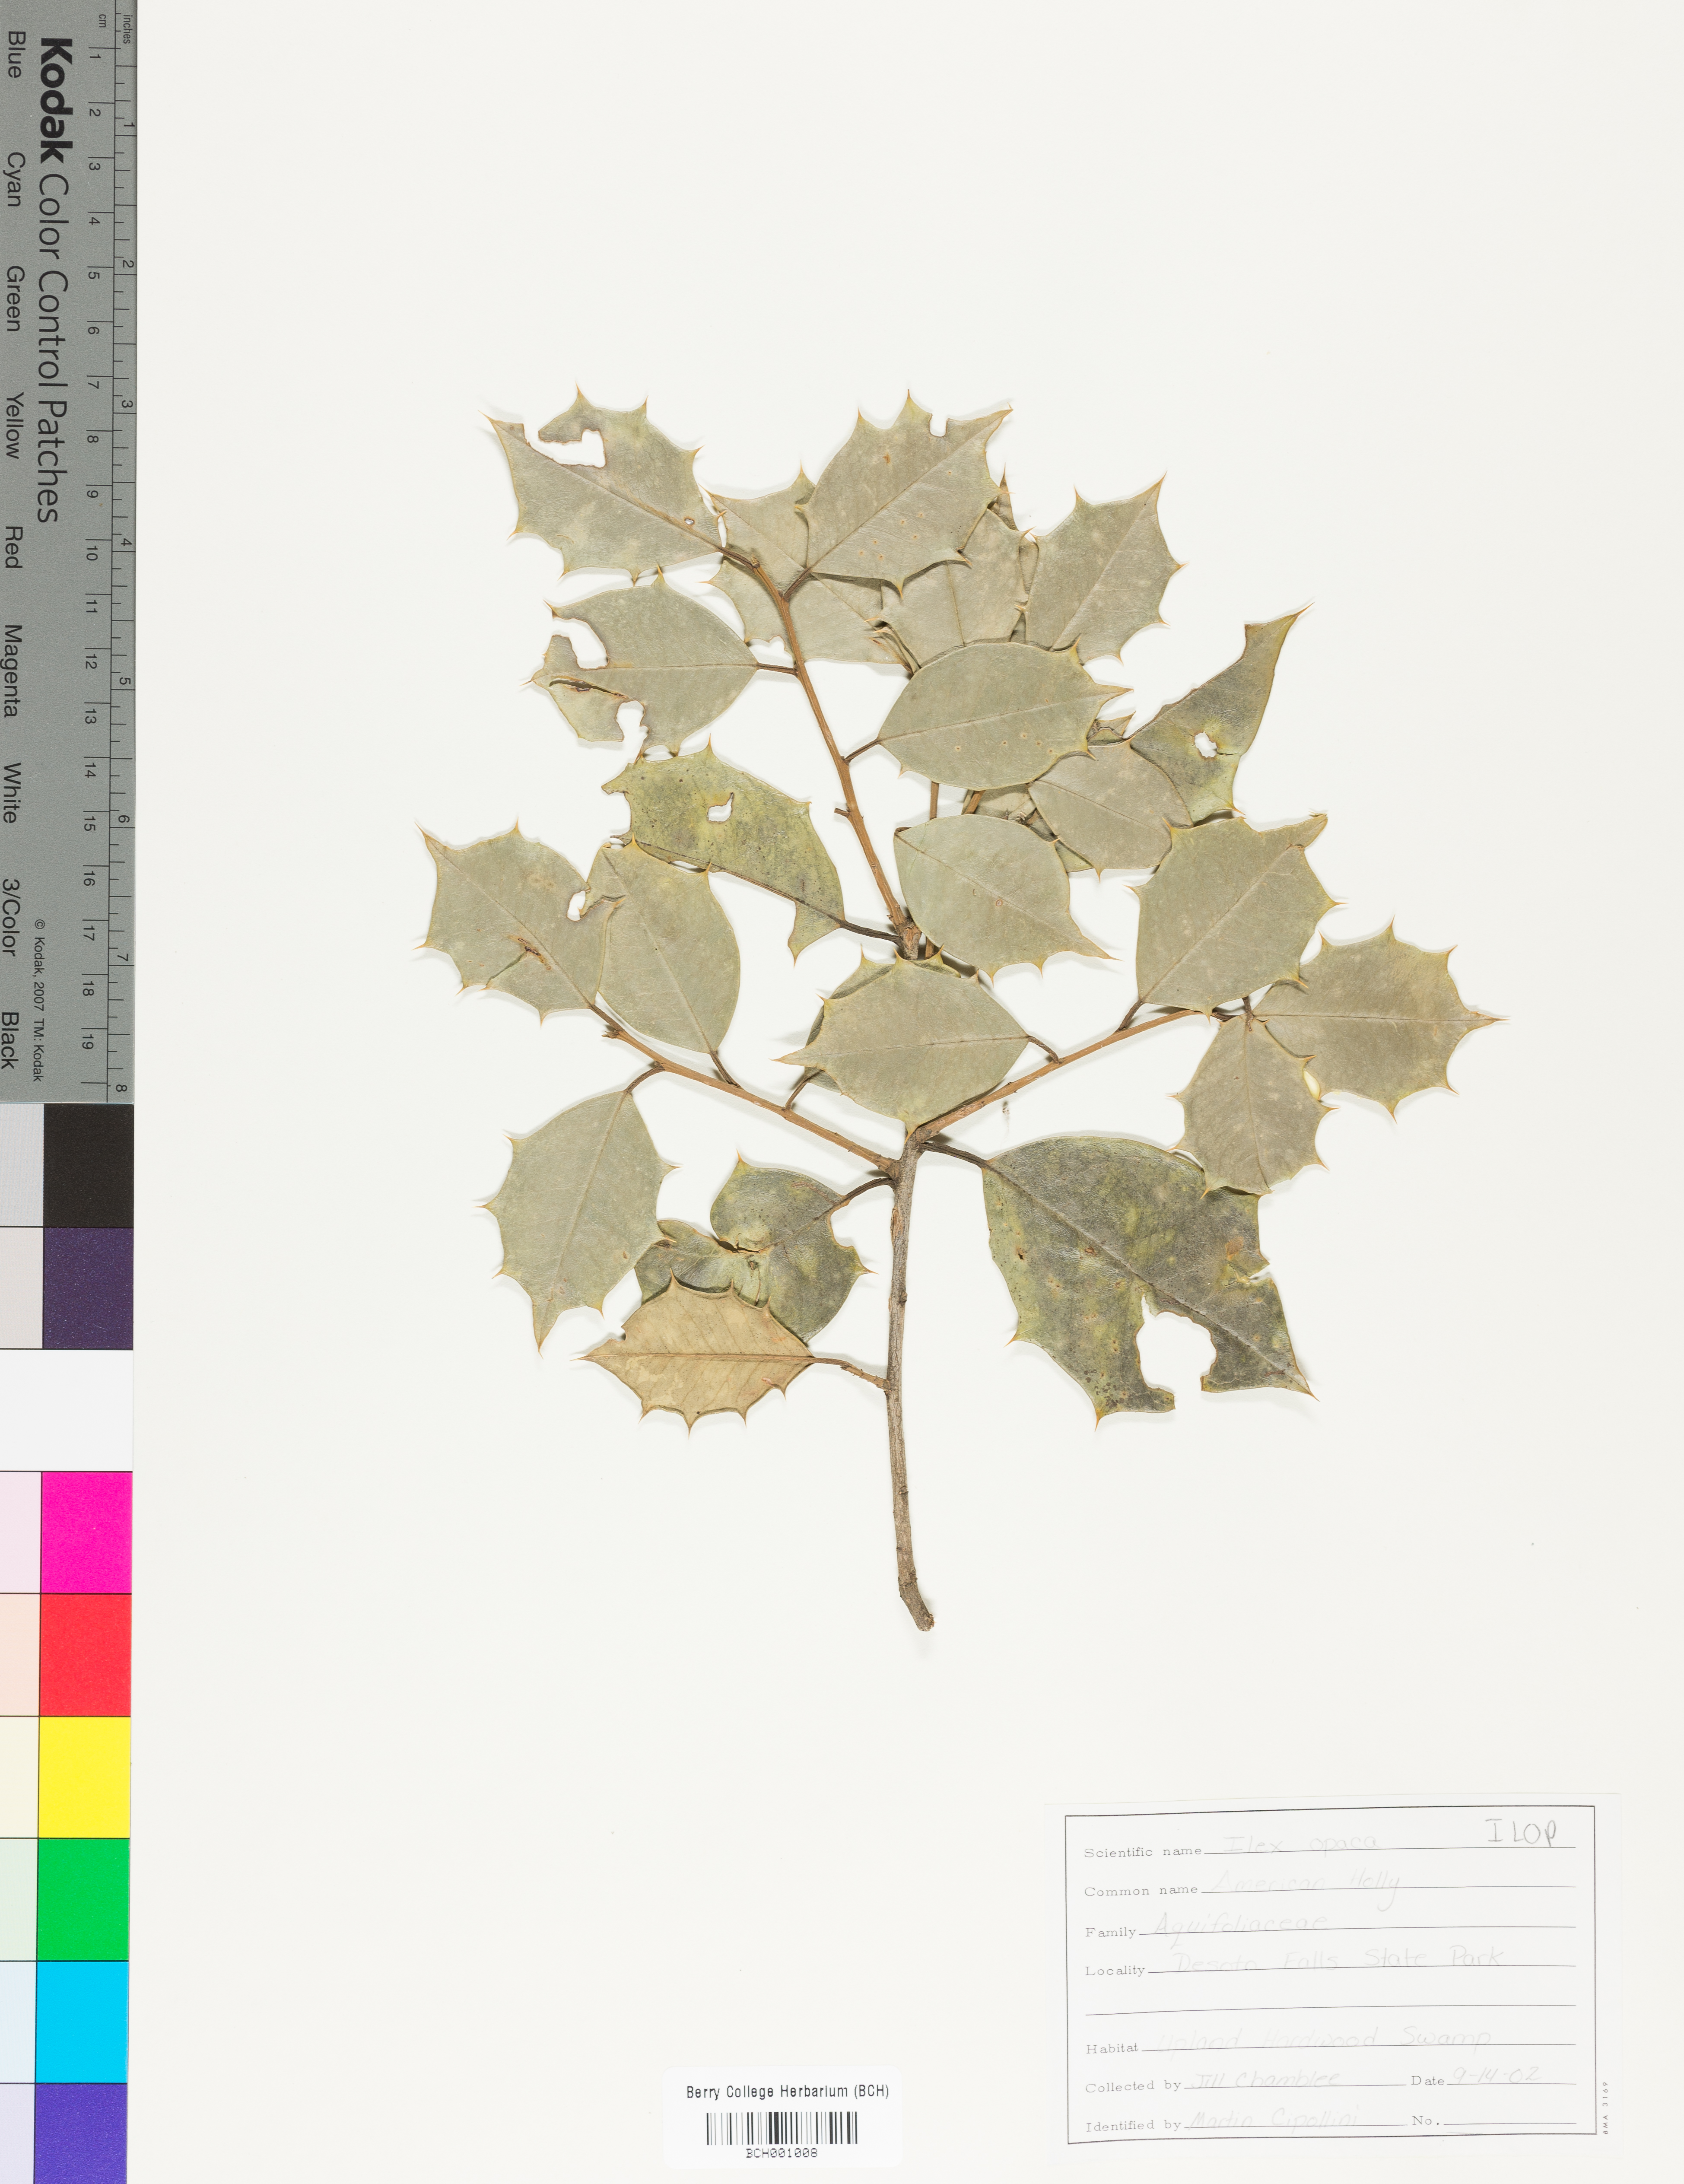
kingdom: Plantae
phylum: Tracheophyta
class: Magnoliopsida
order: Aquifoliales
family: Aquifoliaceae
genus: Ilex
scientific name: Ilex opaca
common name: American holly
